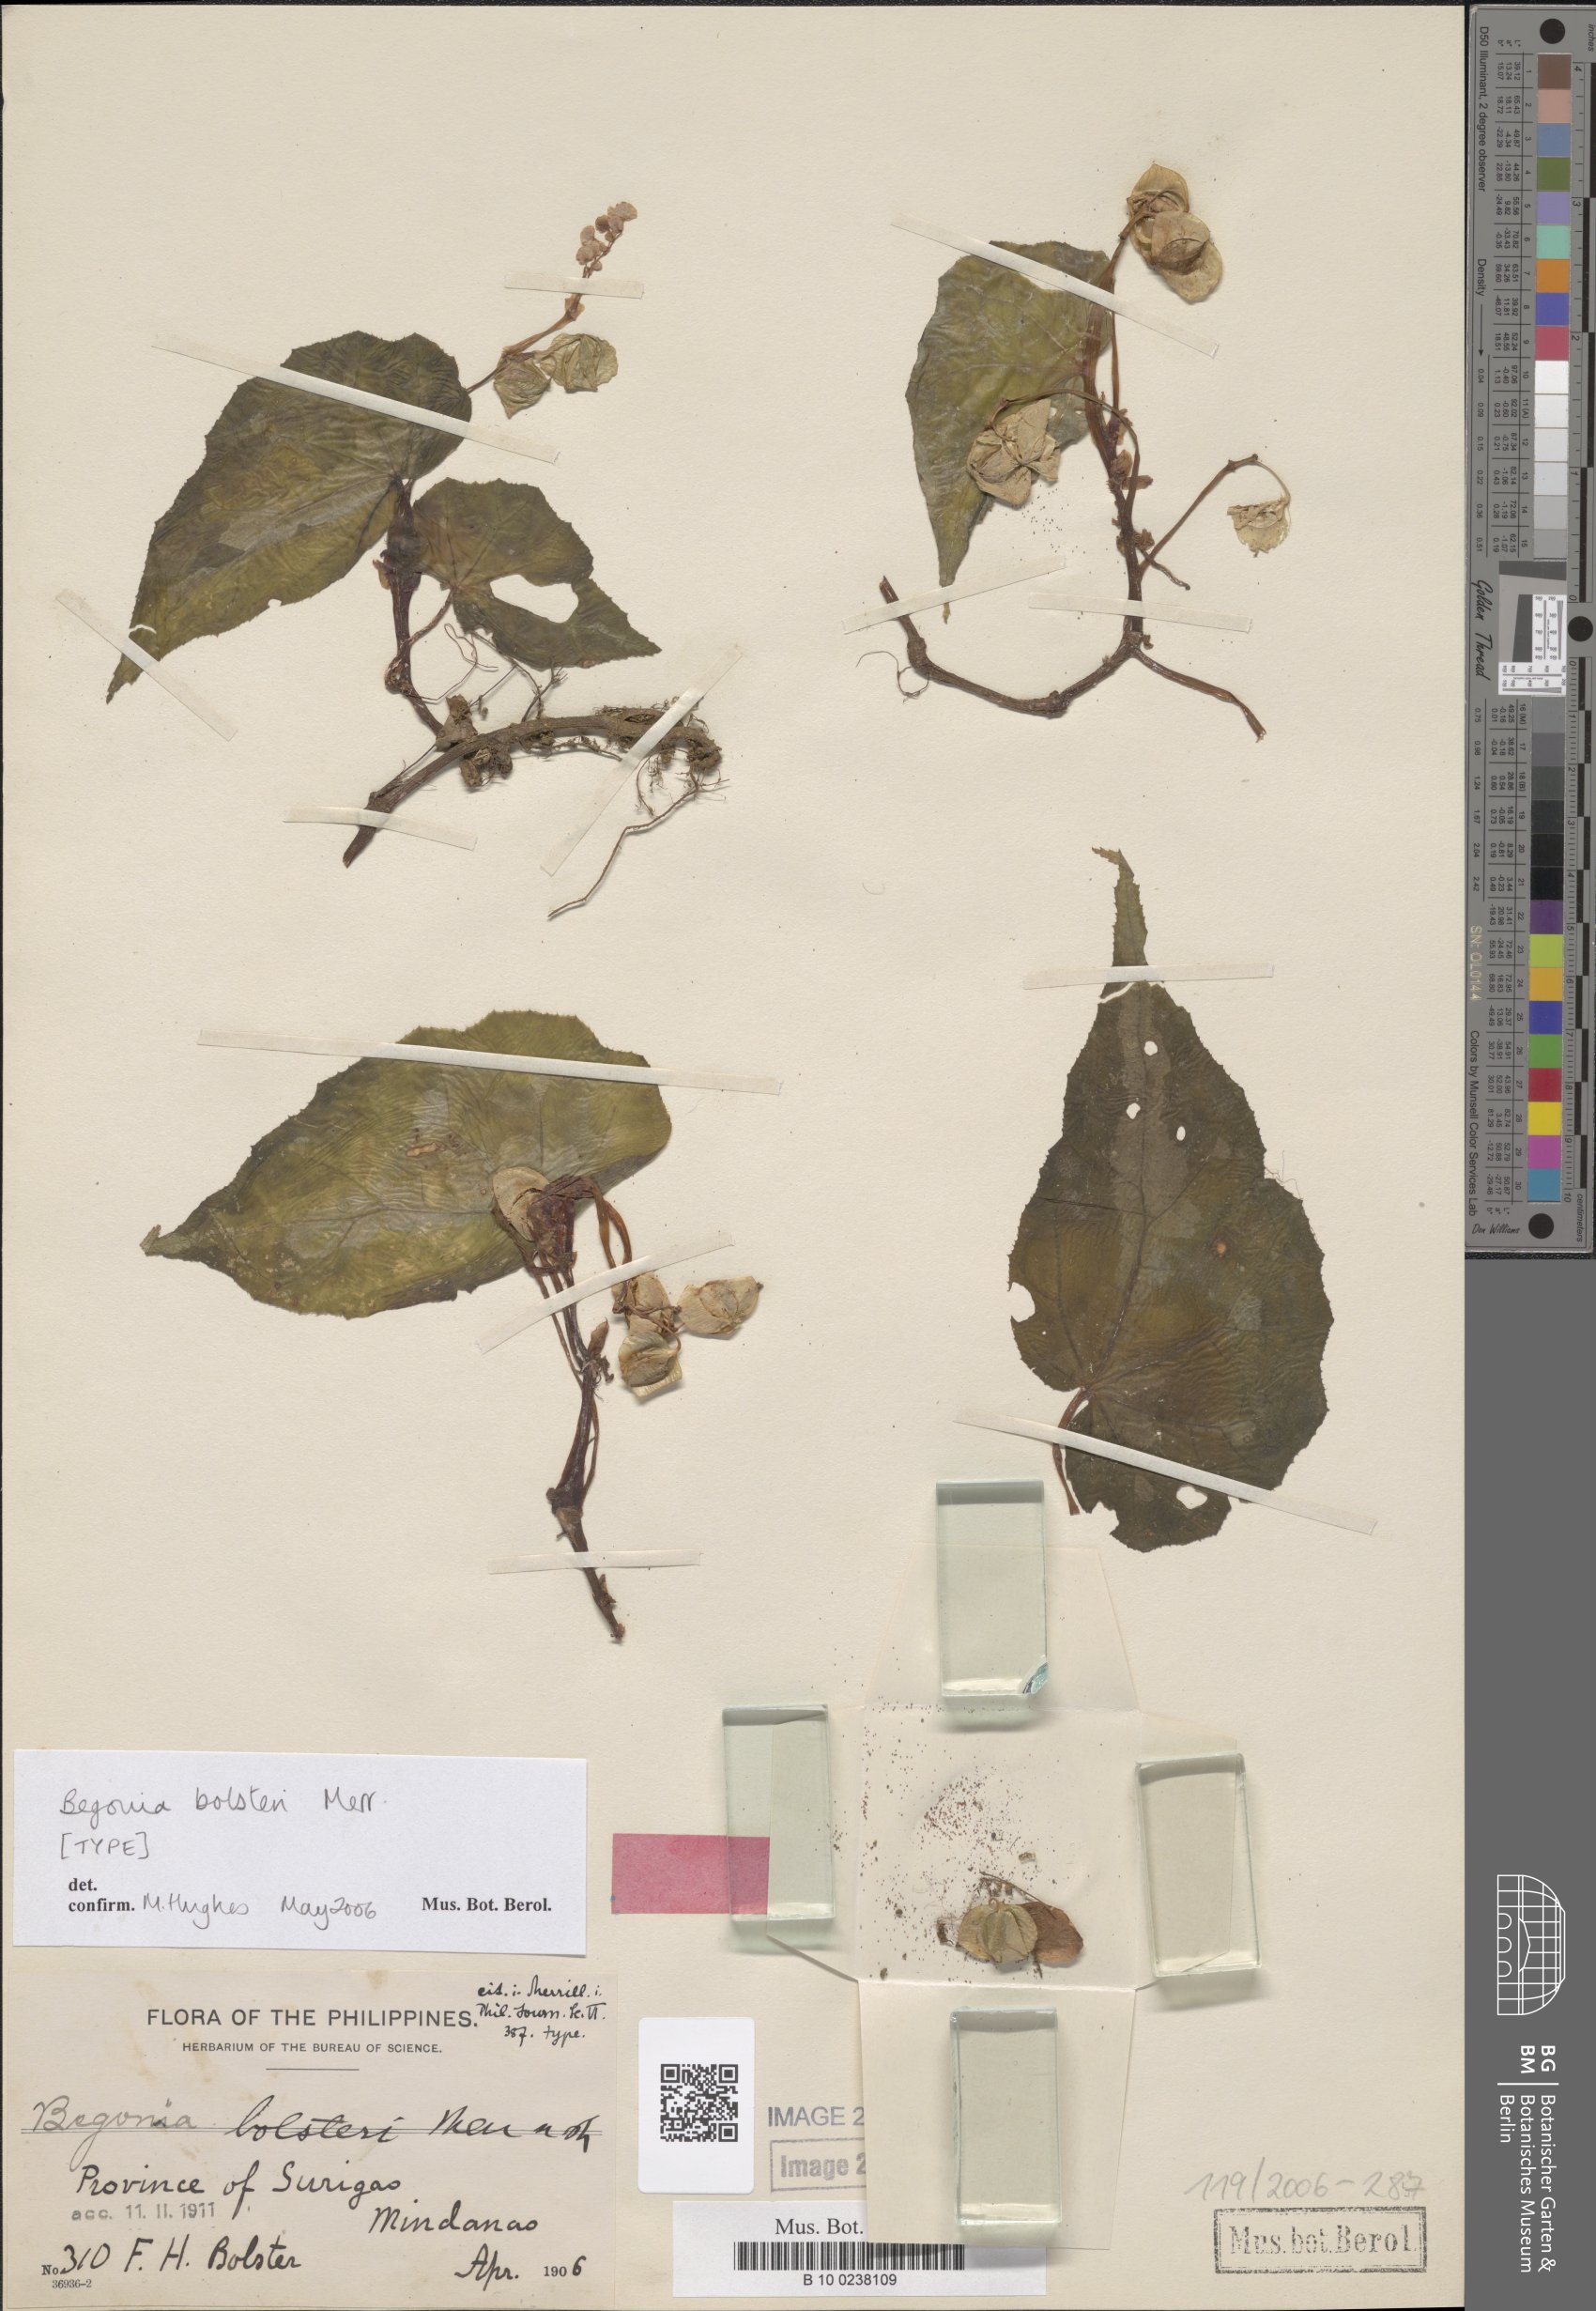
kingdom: Plantae
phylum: Tracheophyta
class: Magnoliopsida
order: Cucurbitales
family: Begoniaceae
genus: Begonia
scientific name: Begonia colorata
